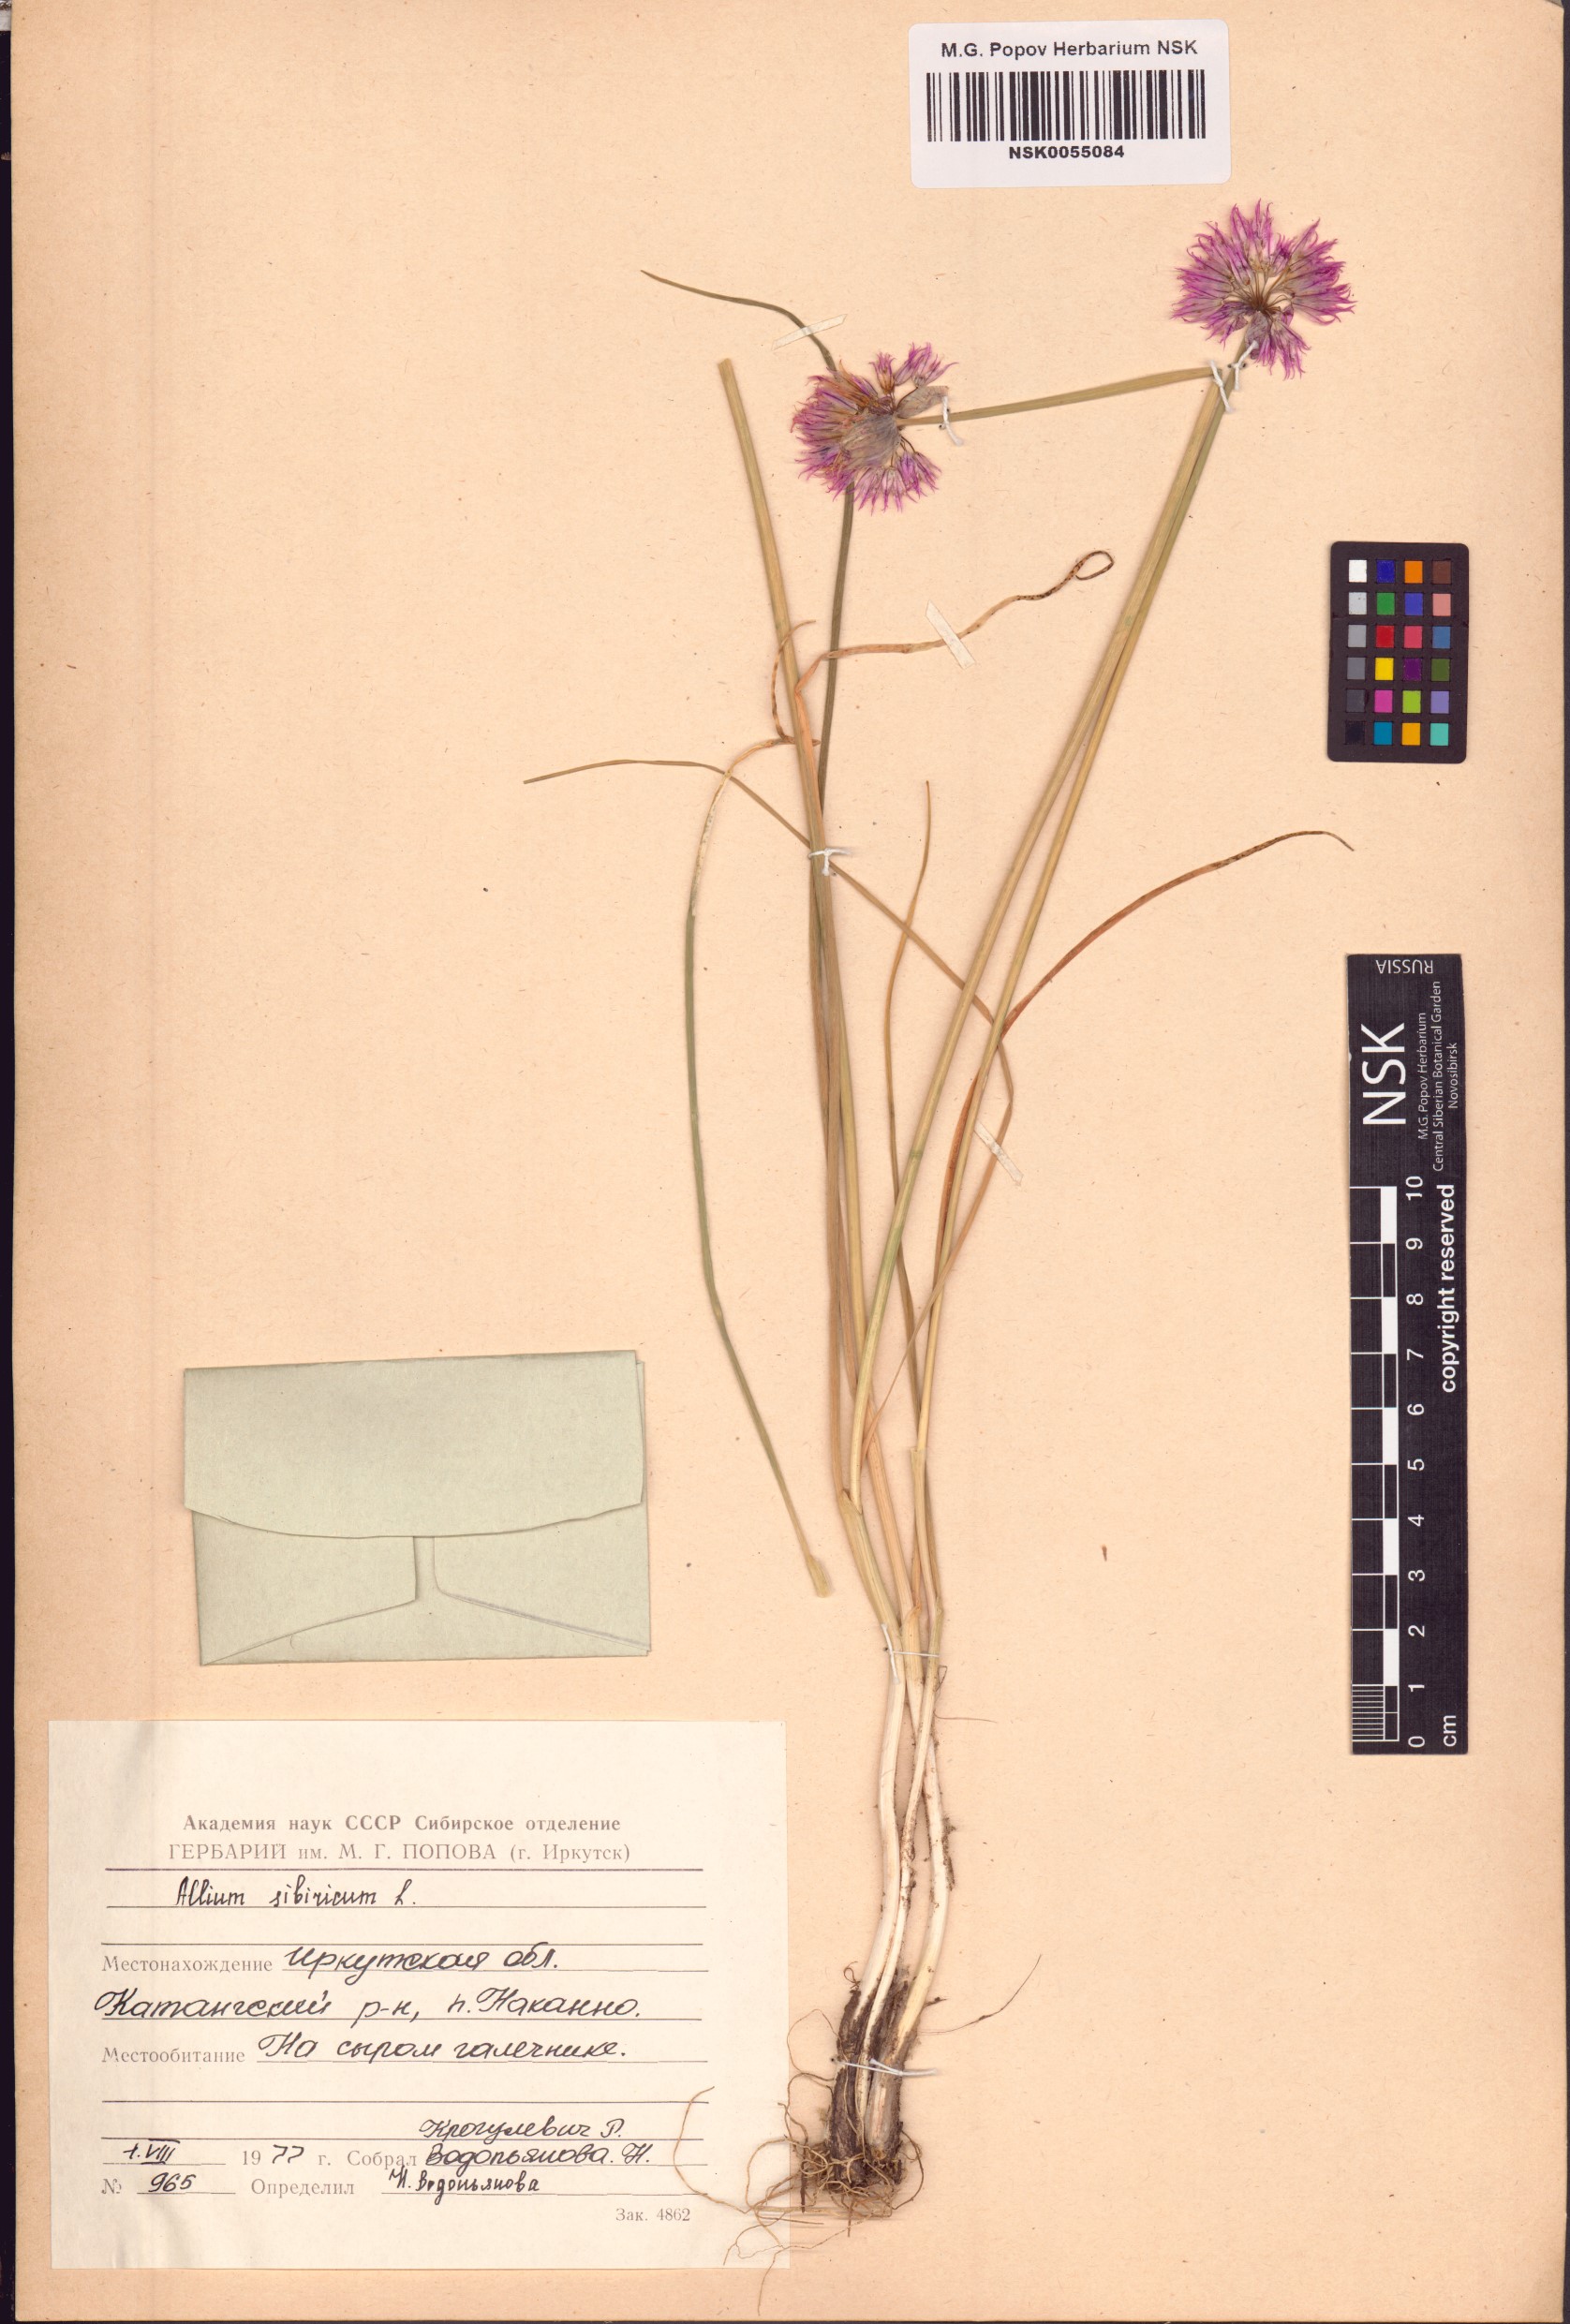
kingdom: Plantae
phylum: Tracheophyta
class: Liliopsida
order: Asparagales
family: Amaryllidaceae
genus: Allium
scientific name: Allium schoenoprasum
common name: Chives
